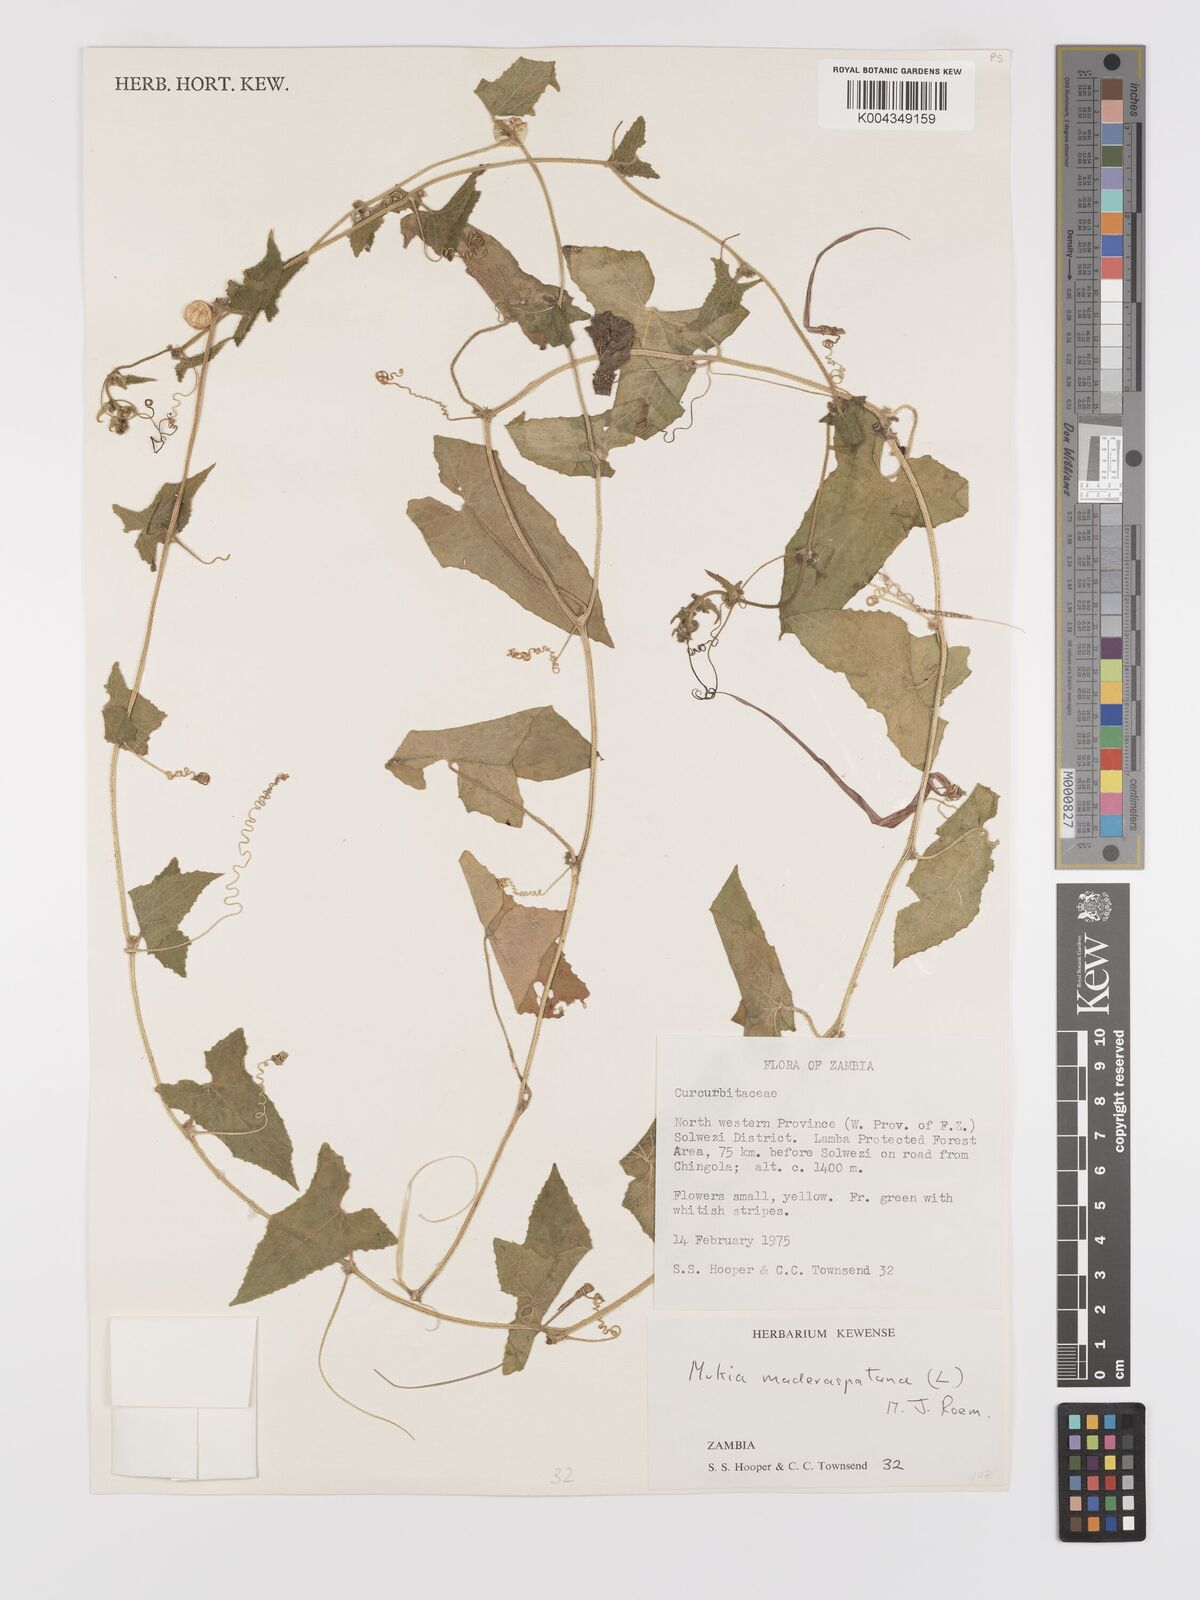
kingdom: Plantae
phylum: Tracheophyta
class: Magnoliopsida
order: Cucurbitales
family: Cucurbitaceae
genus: Cucumis
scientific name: Cucumis maderaspatanus
